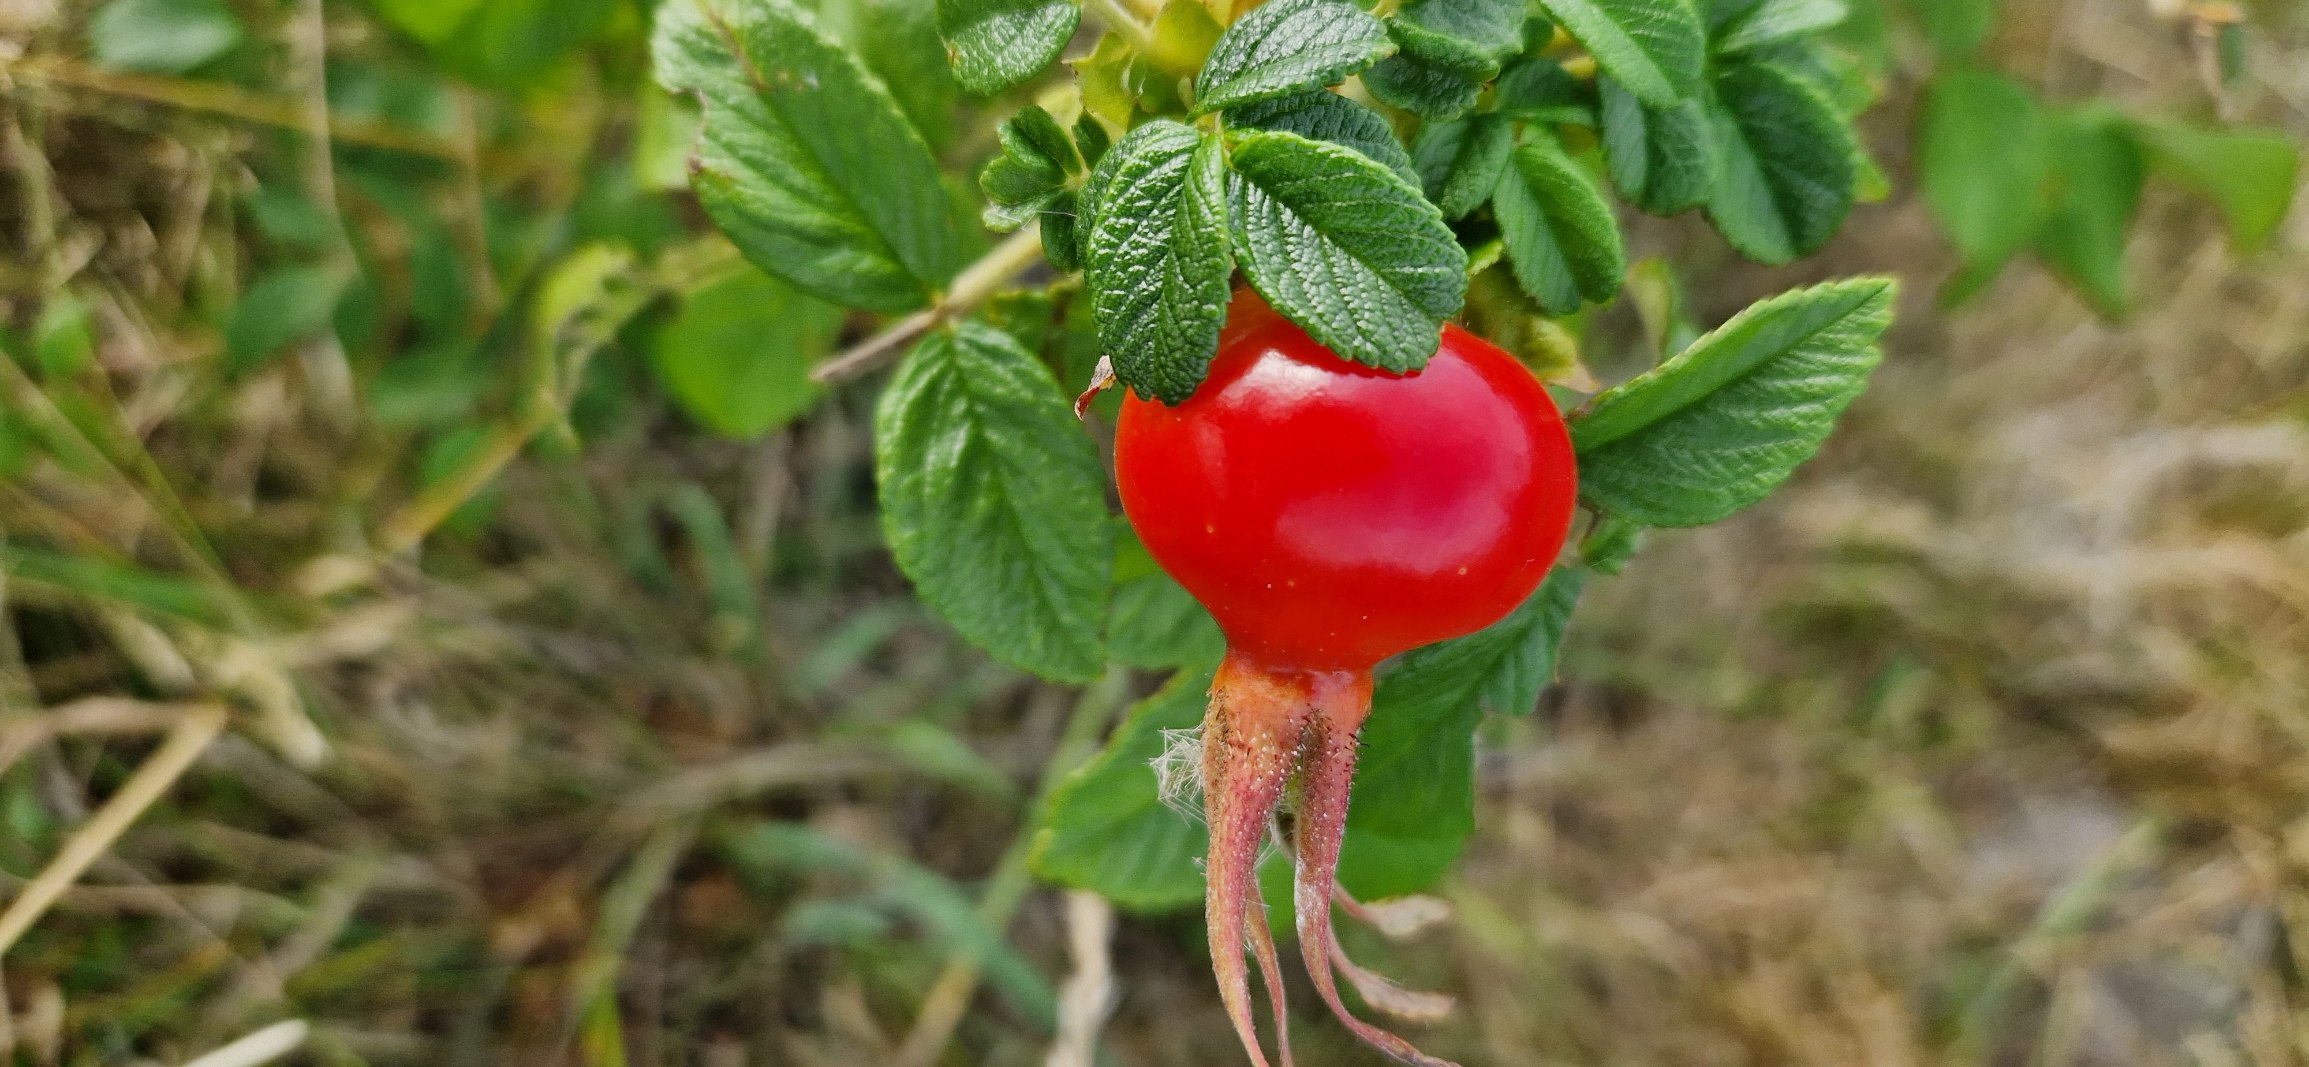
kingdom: Plantae
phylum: Tracheophyta
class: Magnoliopsida
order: Rosales
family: Rosaceae
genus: Rosa
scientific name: Rosa rugosa
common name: Rynket rose
